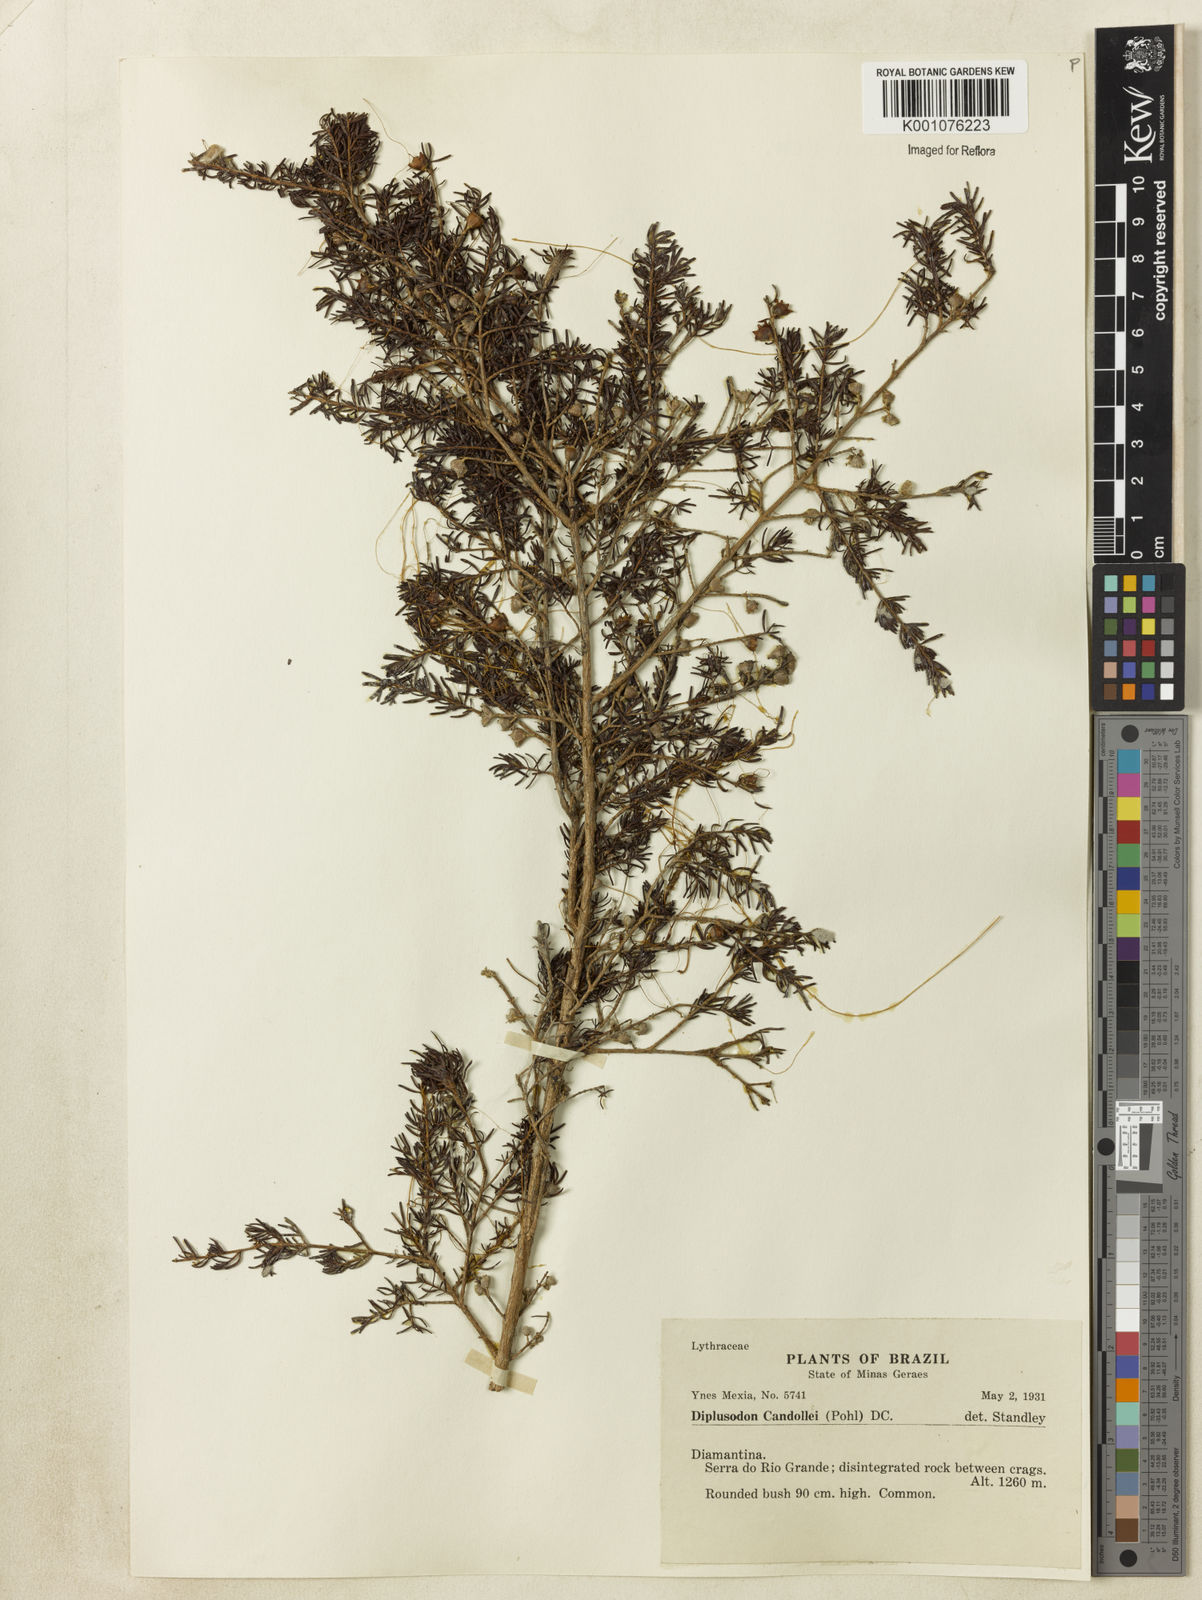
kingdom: Plantae
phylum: Tracheophyta
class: Magnoliopsida
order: Myrtales
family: Lythraceae
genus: Diplusodon
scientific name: Diplusodon candollei
